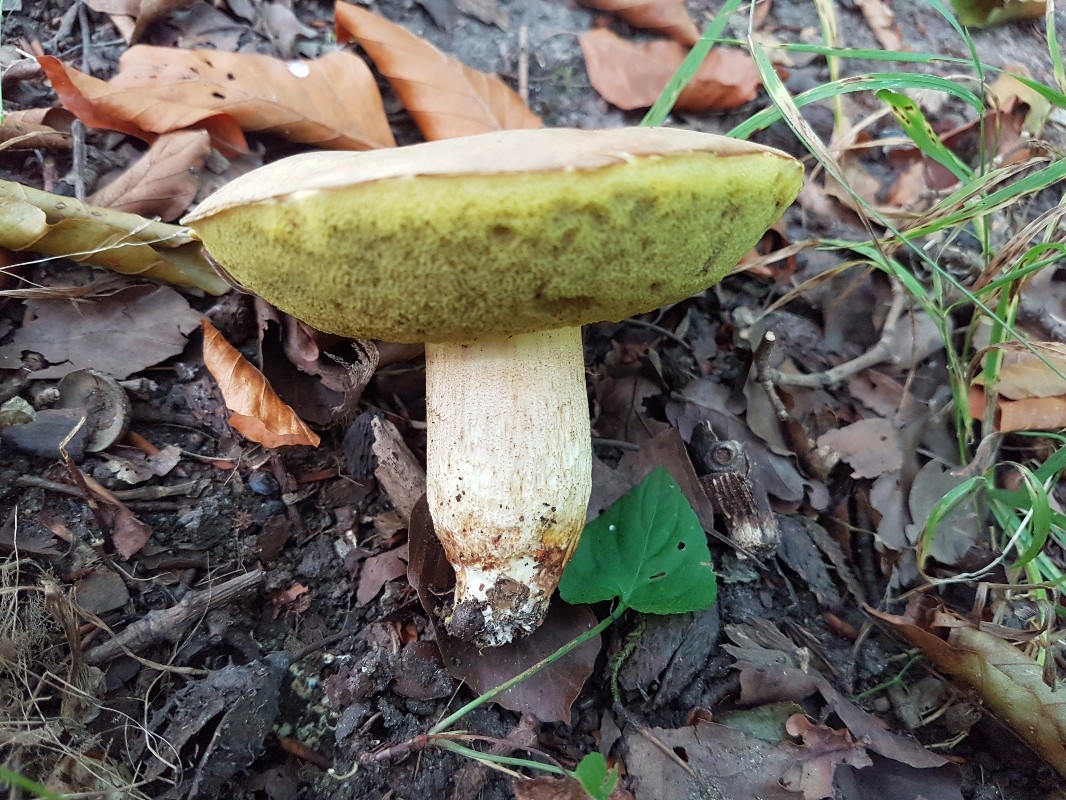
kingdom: Fungi
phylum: Basidiomycota
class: Agaricomycetes
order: Boletales
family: Boletaceae
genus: Hemileccinum
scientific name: Hemileccinum impolitum
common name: bleg rørhat
